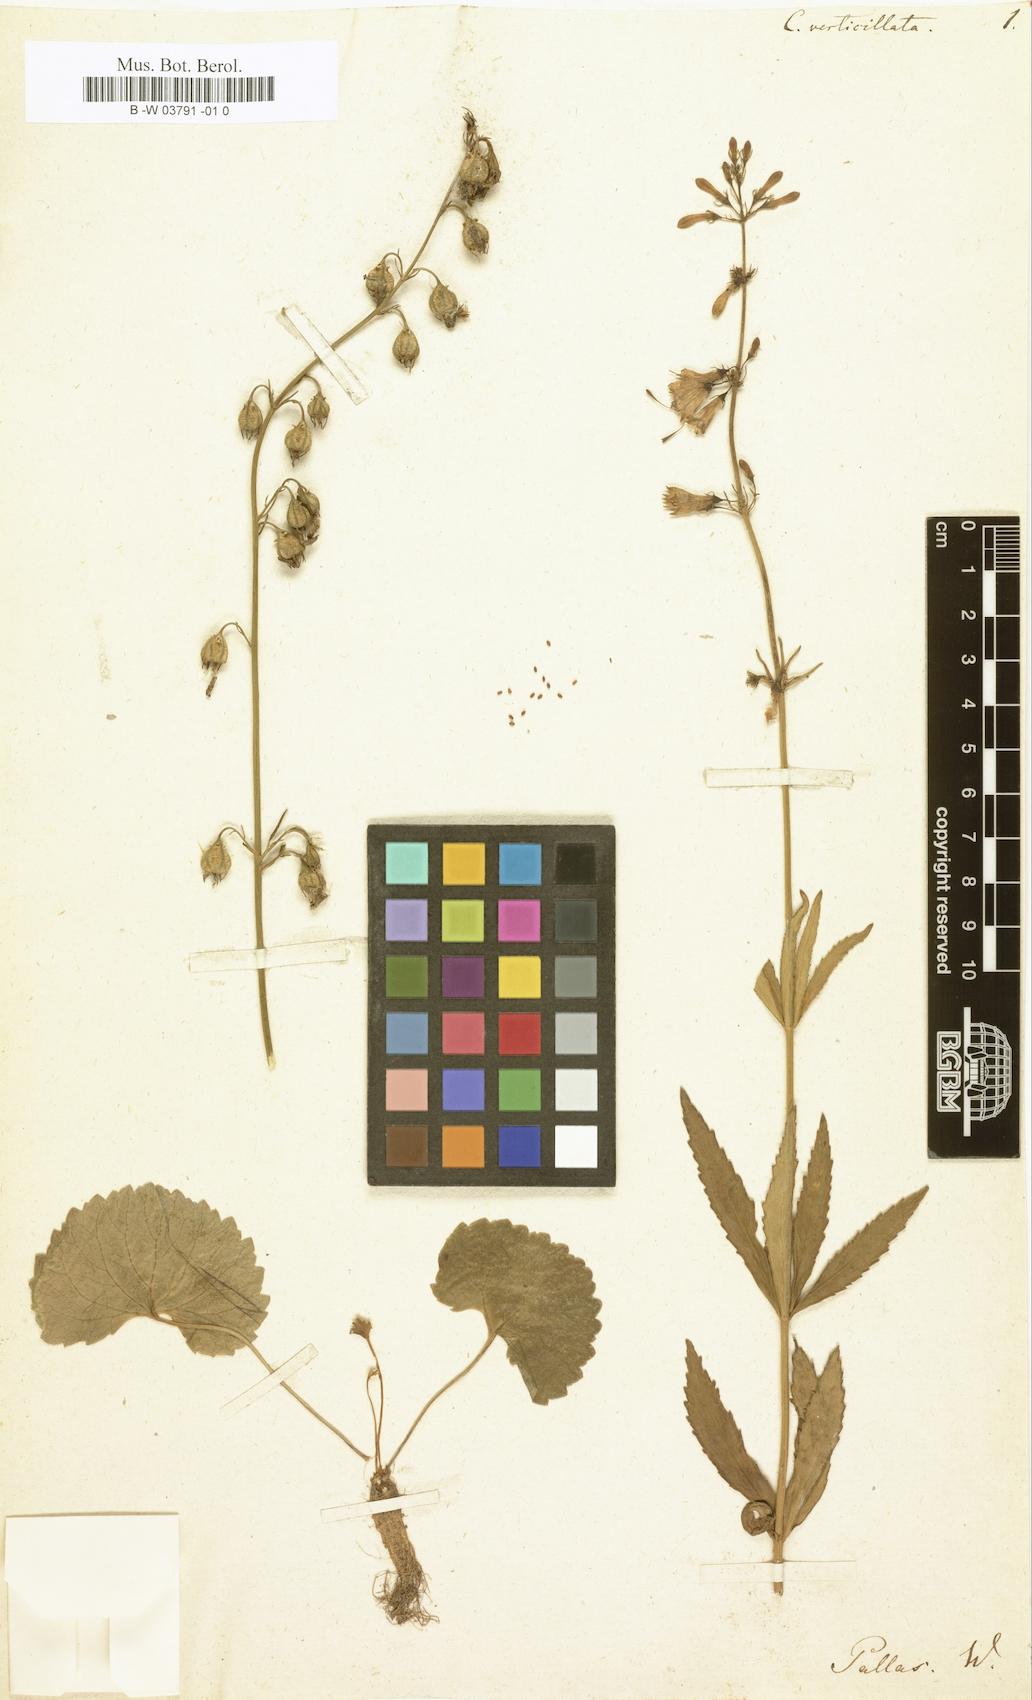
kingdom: Plantae
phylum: Tracheophyta
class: Magnoliopsida
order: Asterales
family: Campanulaceae
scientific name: Campanulaceae
